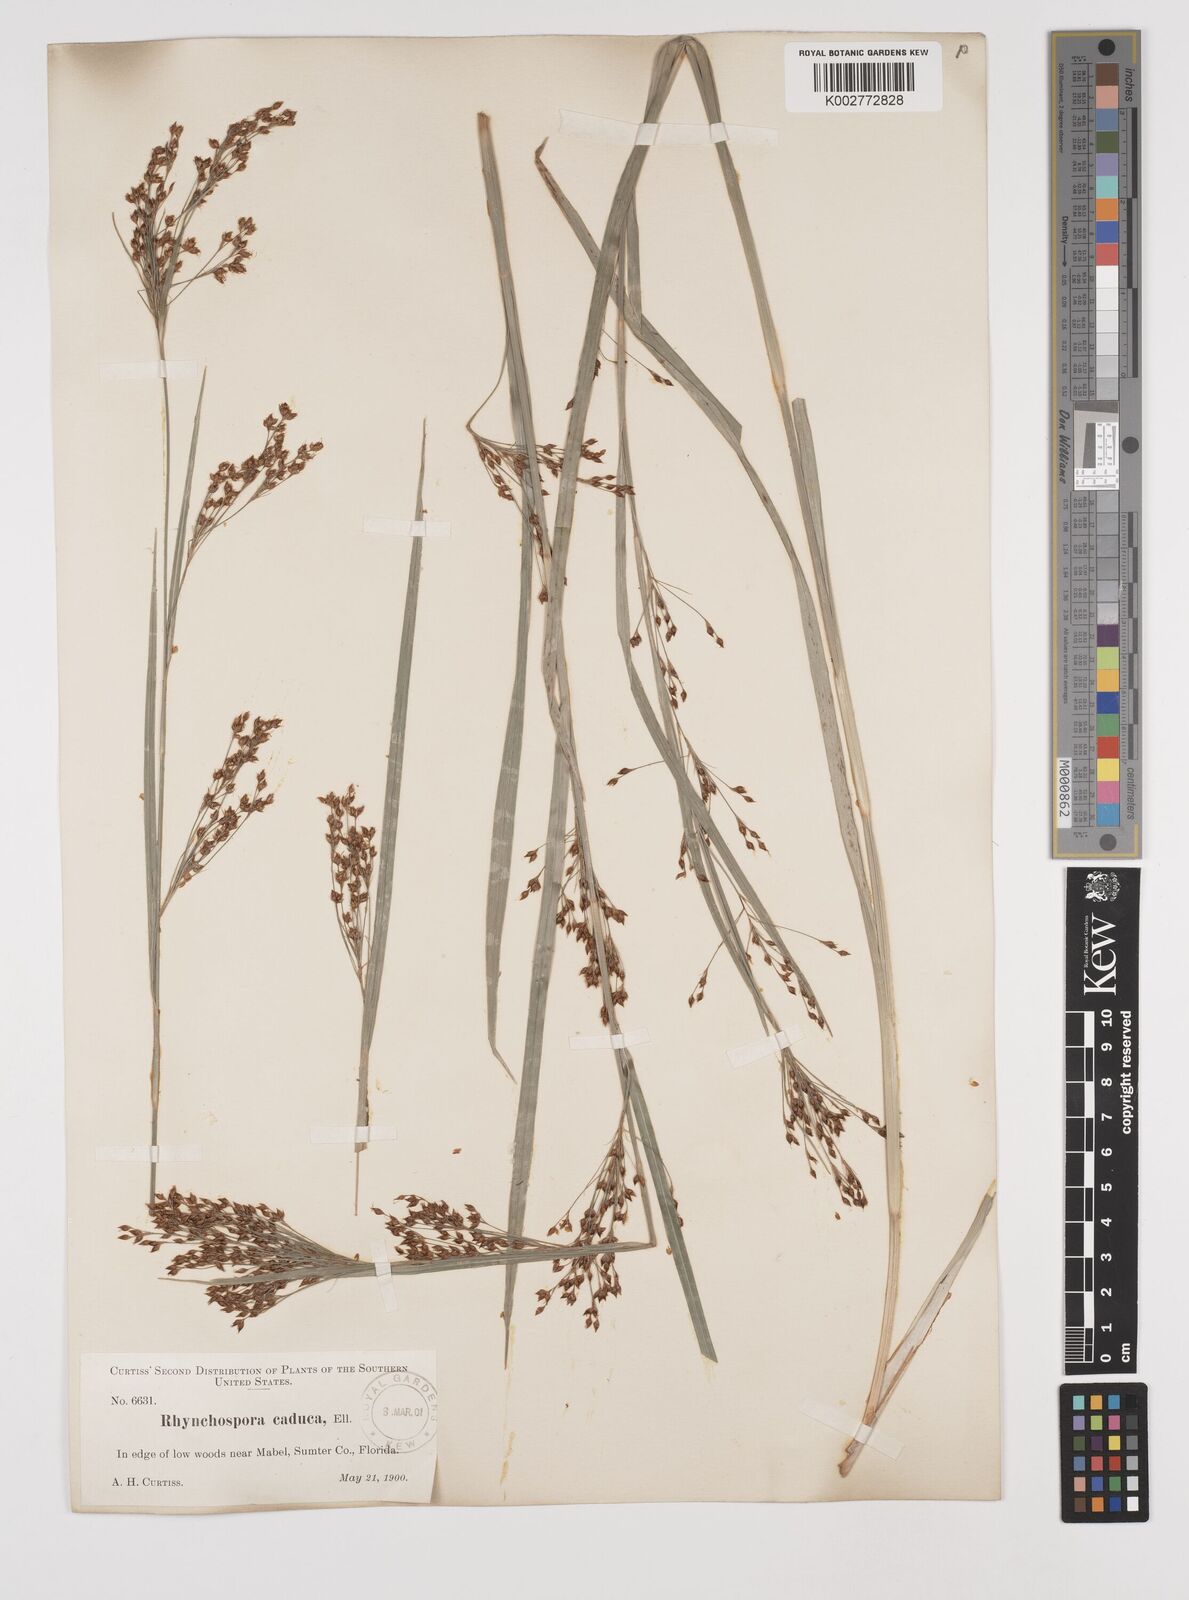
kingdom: Plantae
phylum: Tracheophyta
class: Liliopsida
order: Poales
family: Cyperaceae
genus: Rhynchospora
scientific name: Rhynchospora caduca
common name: Anglestem beaksedge
